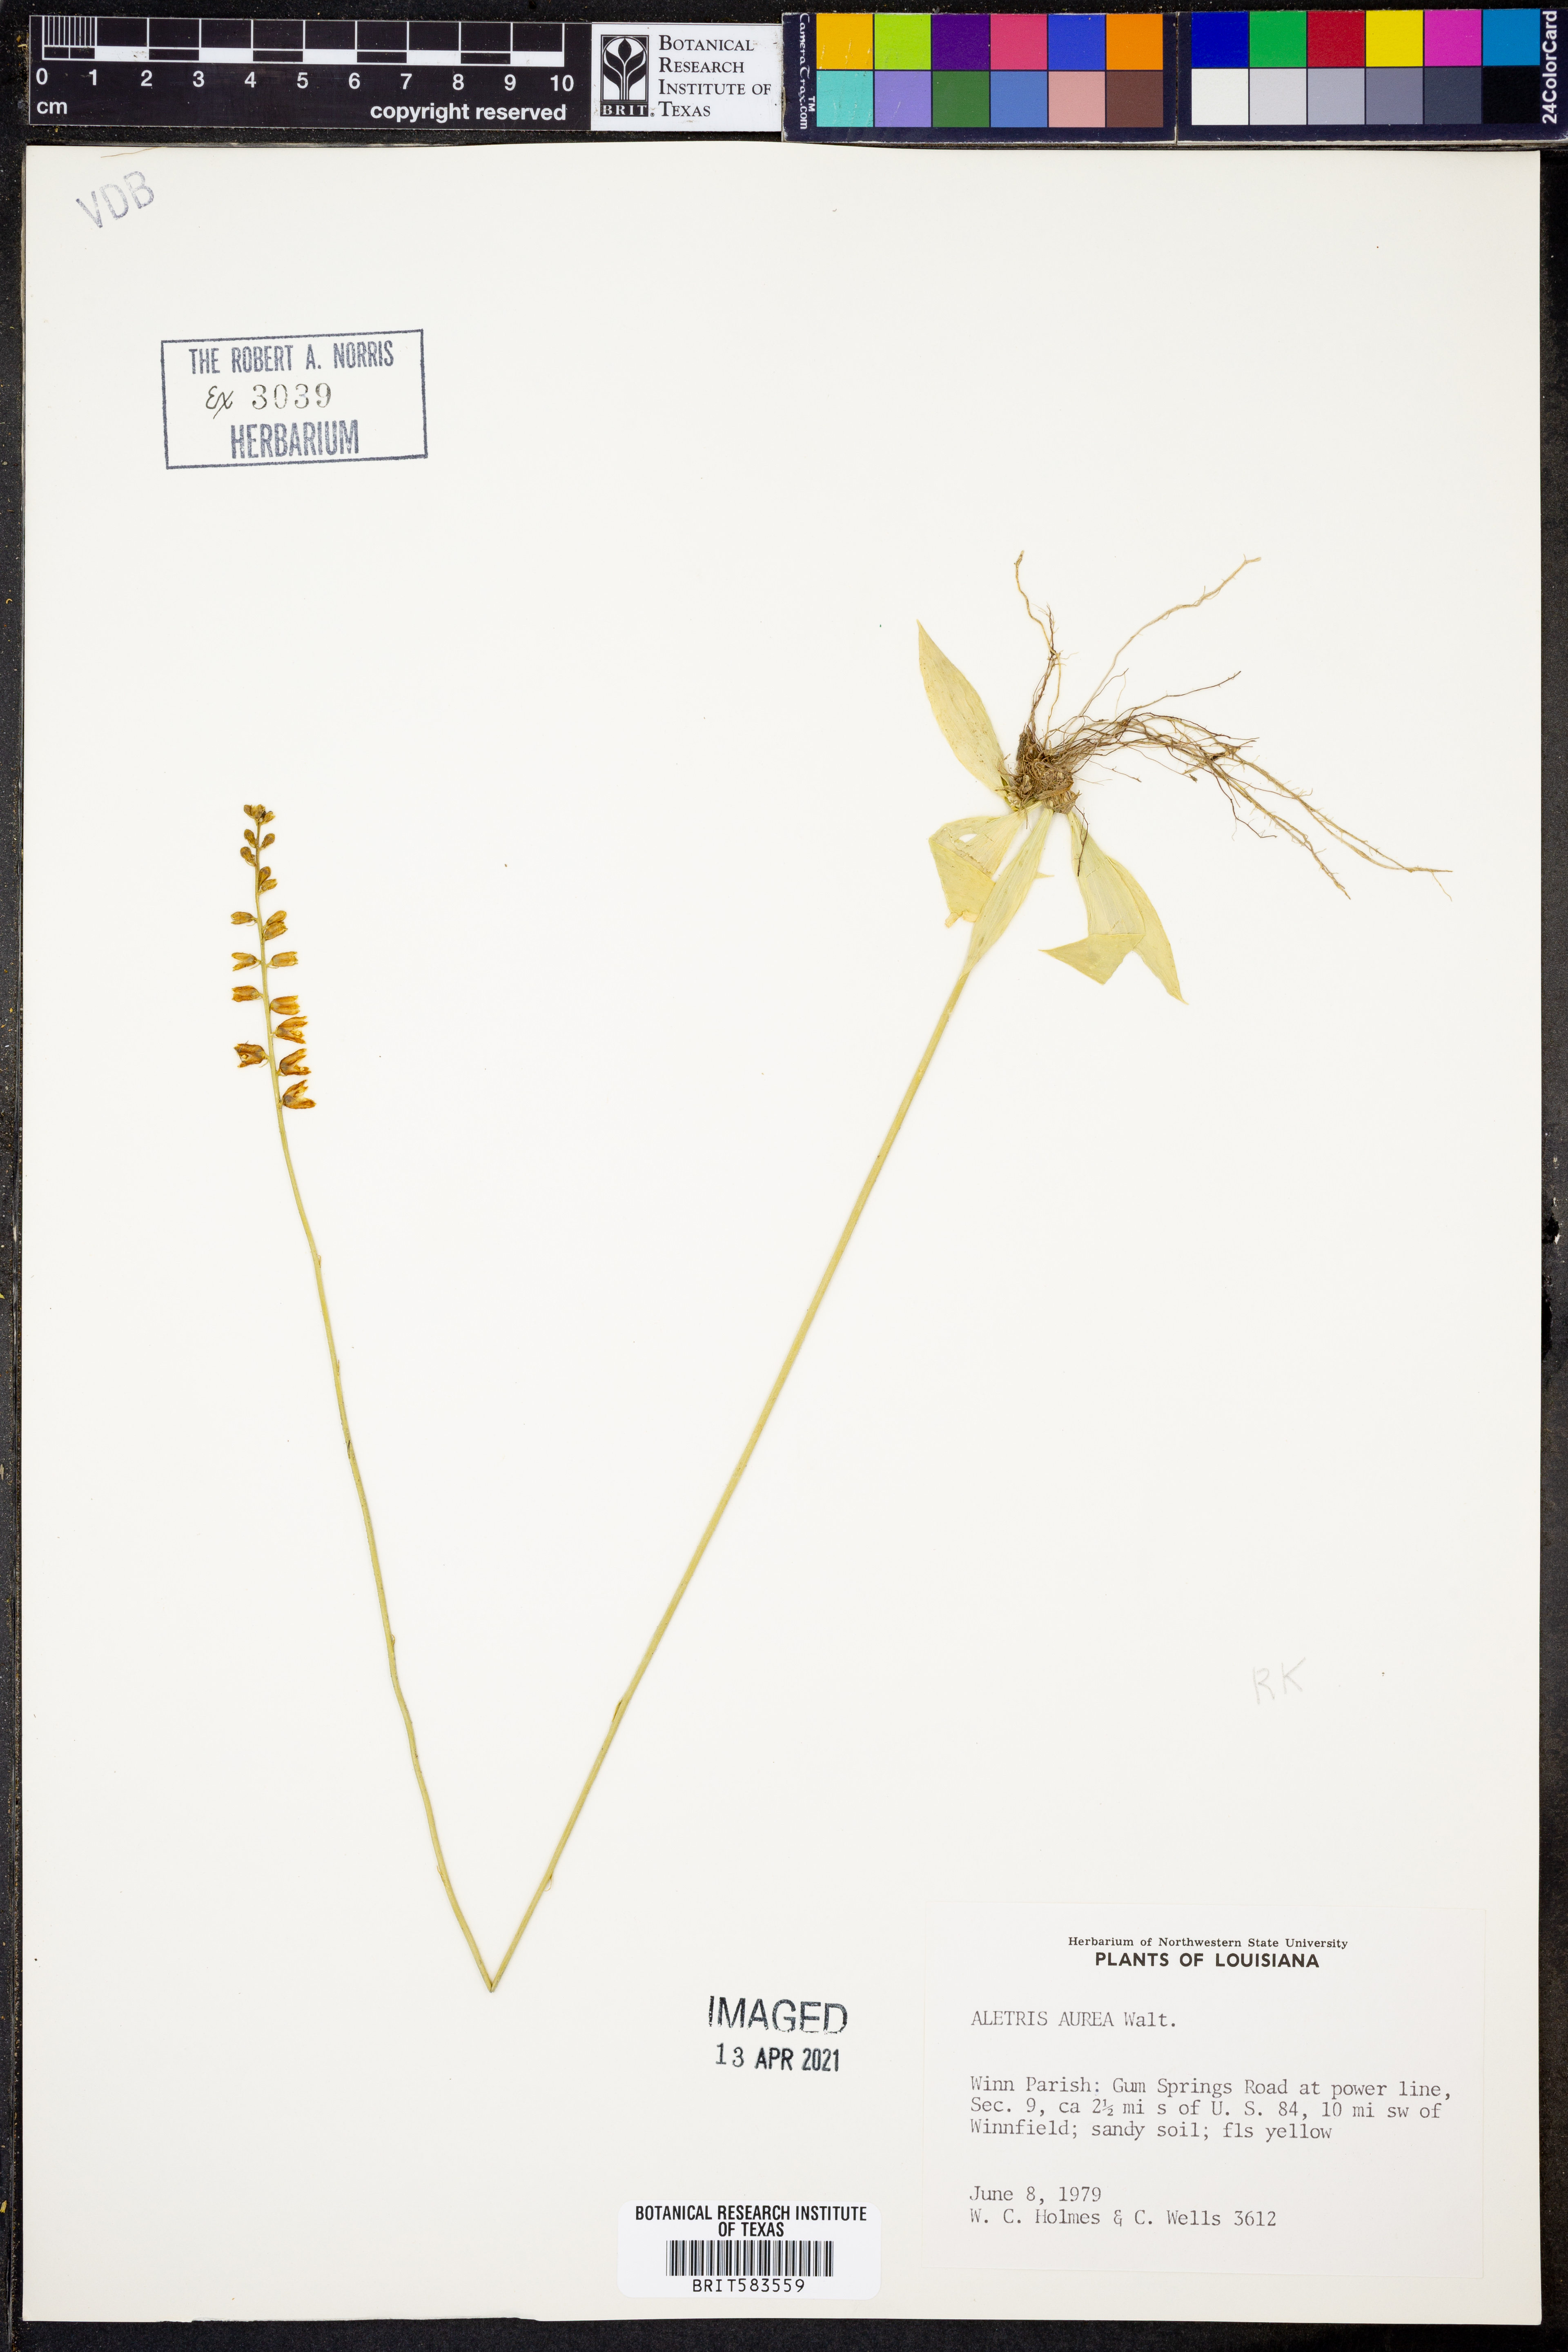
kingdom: Plantae
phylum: Tracheophyta
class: Liliopsida
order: Dioscoreales
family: Nartheciaceae
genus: Aletris
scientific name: Aletris aurea
